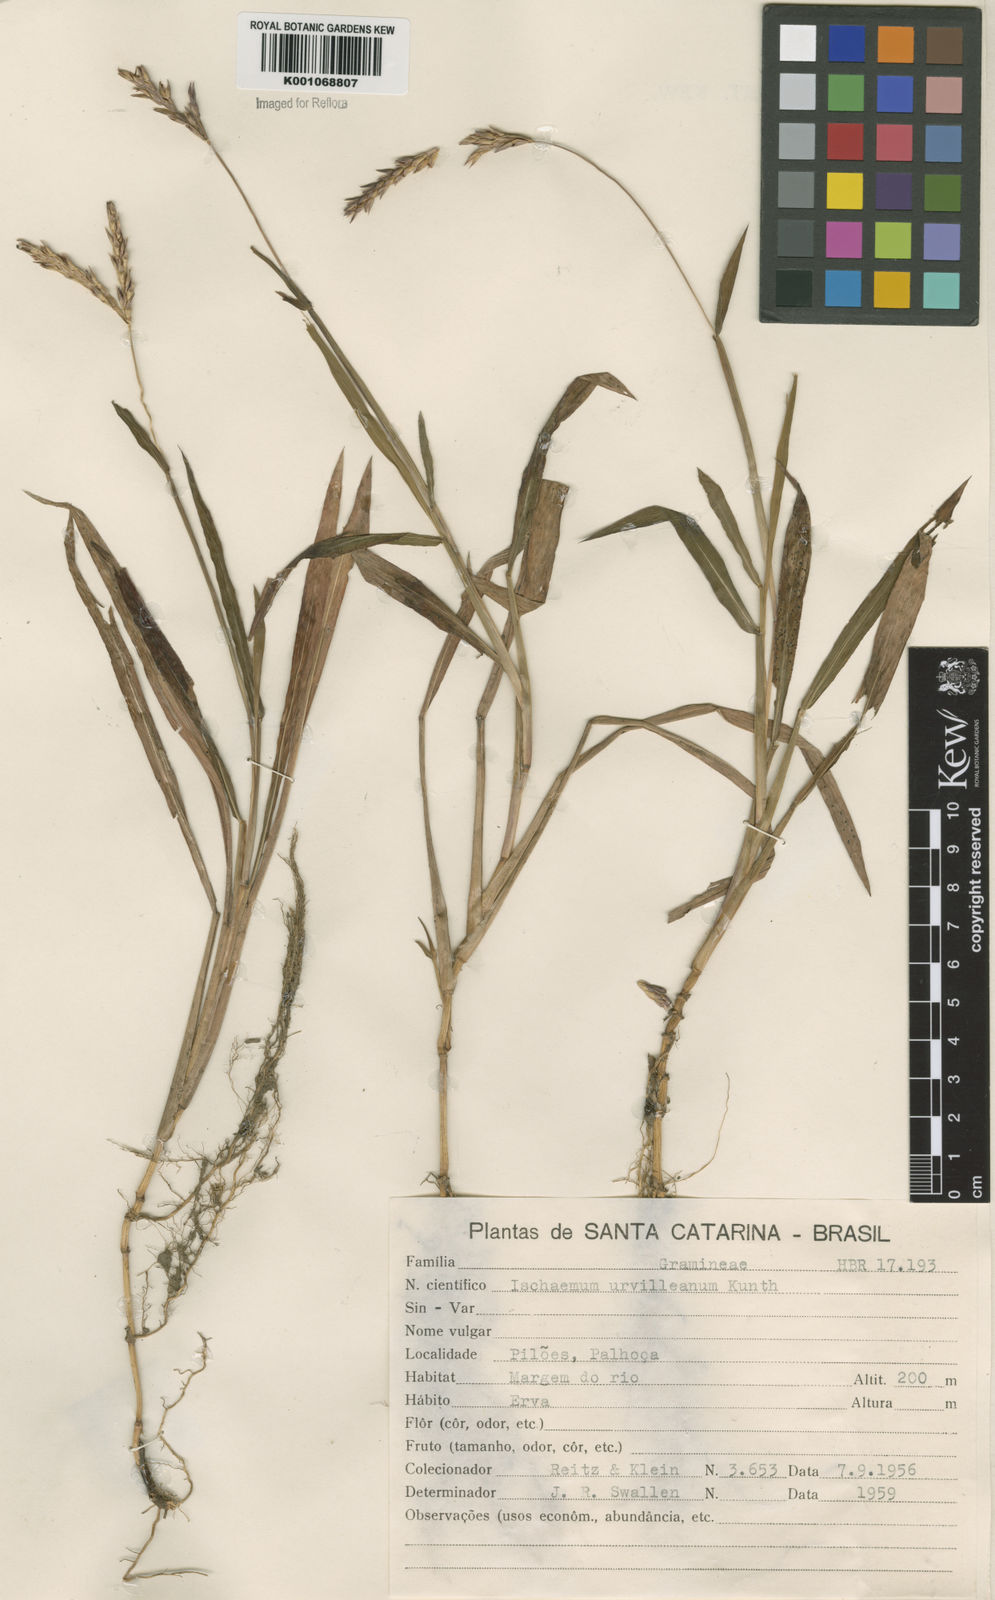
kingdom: Plantae
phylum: Tracheophyta
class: Liliopsida
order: Poales
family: Poaceae
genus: Ischaemum
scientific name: Ischaemum latifolium
